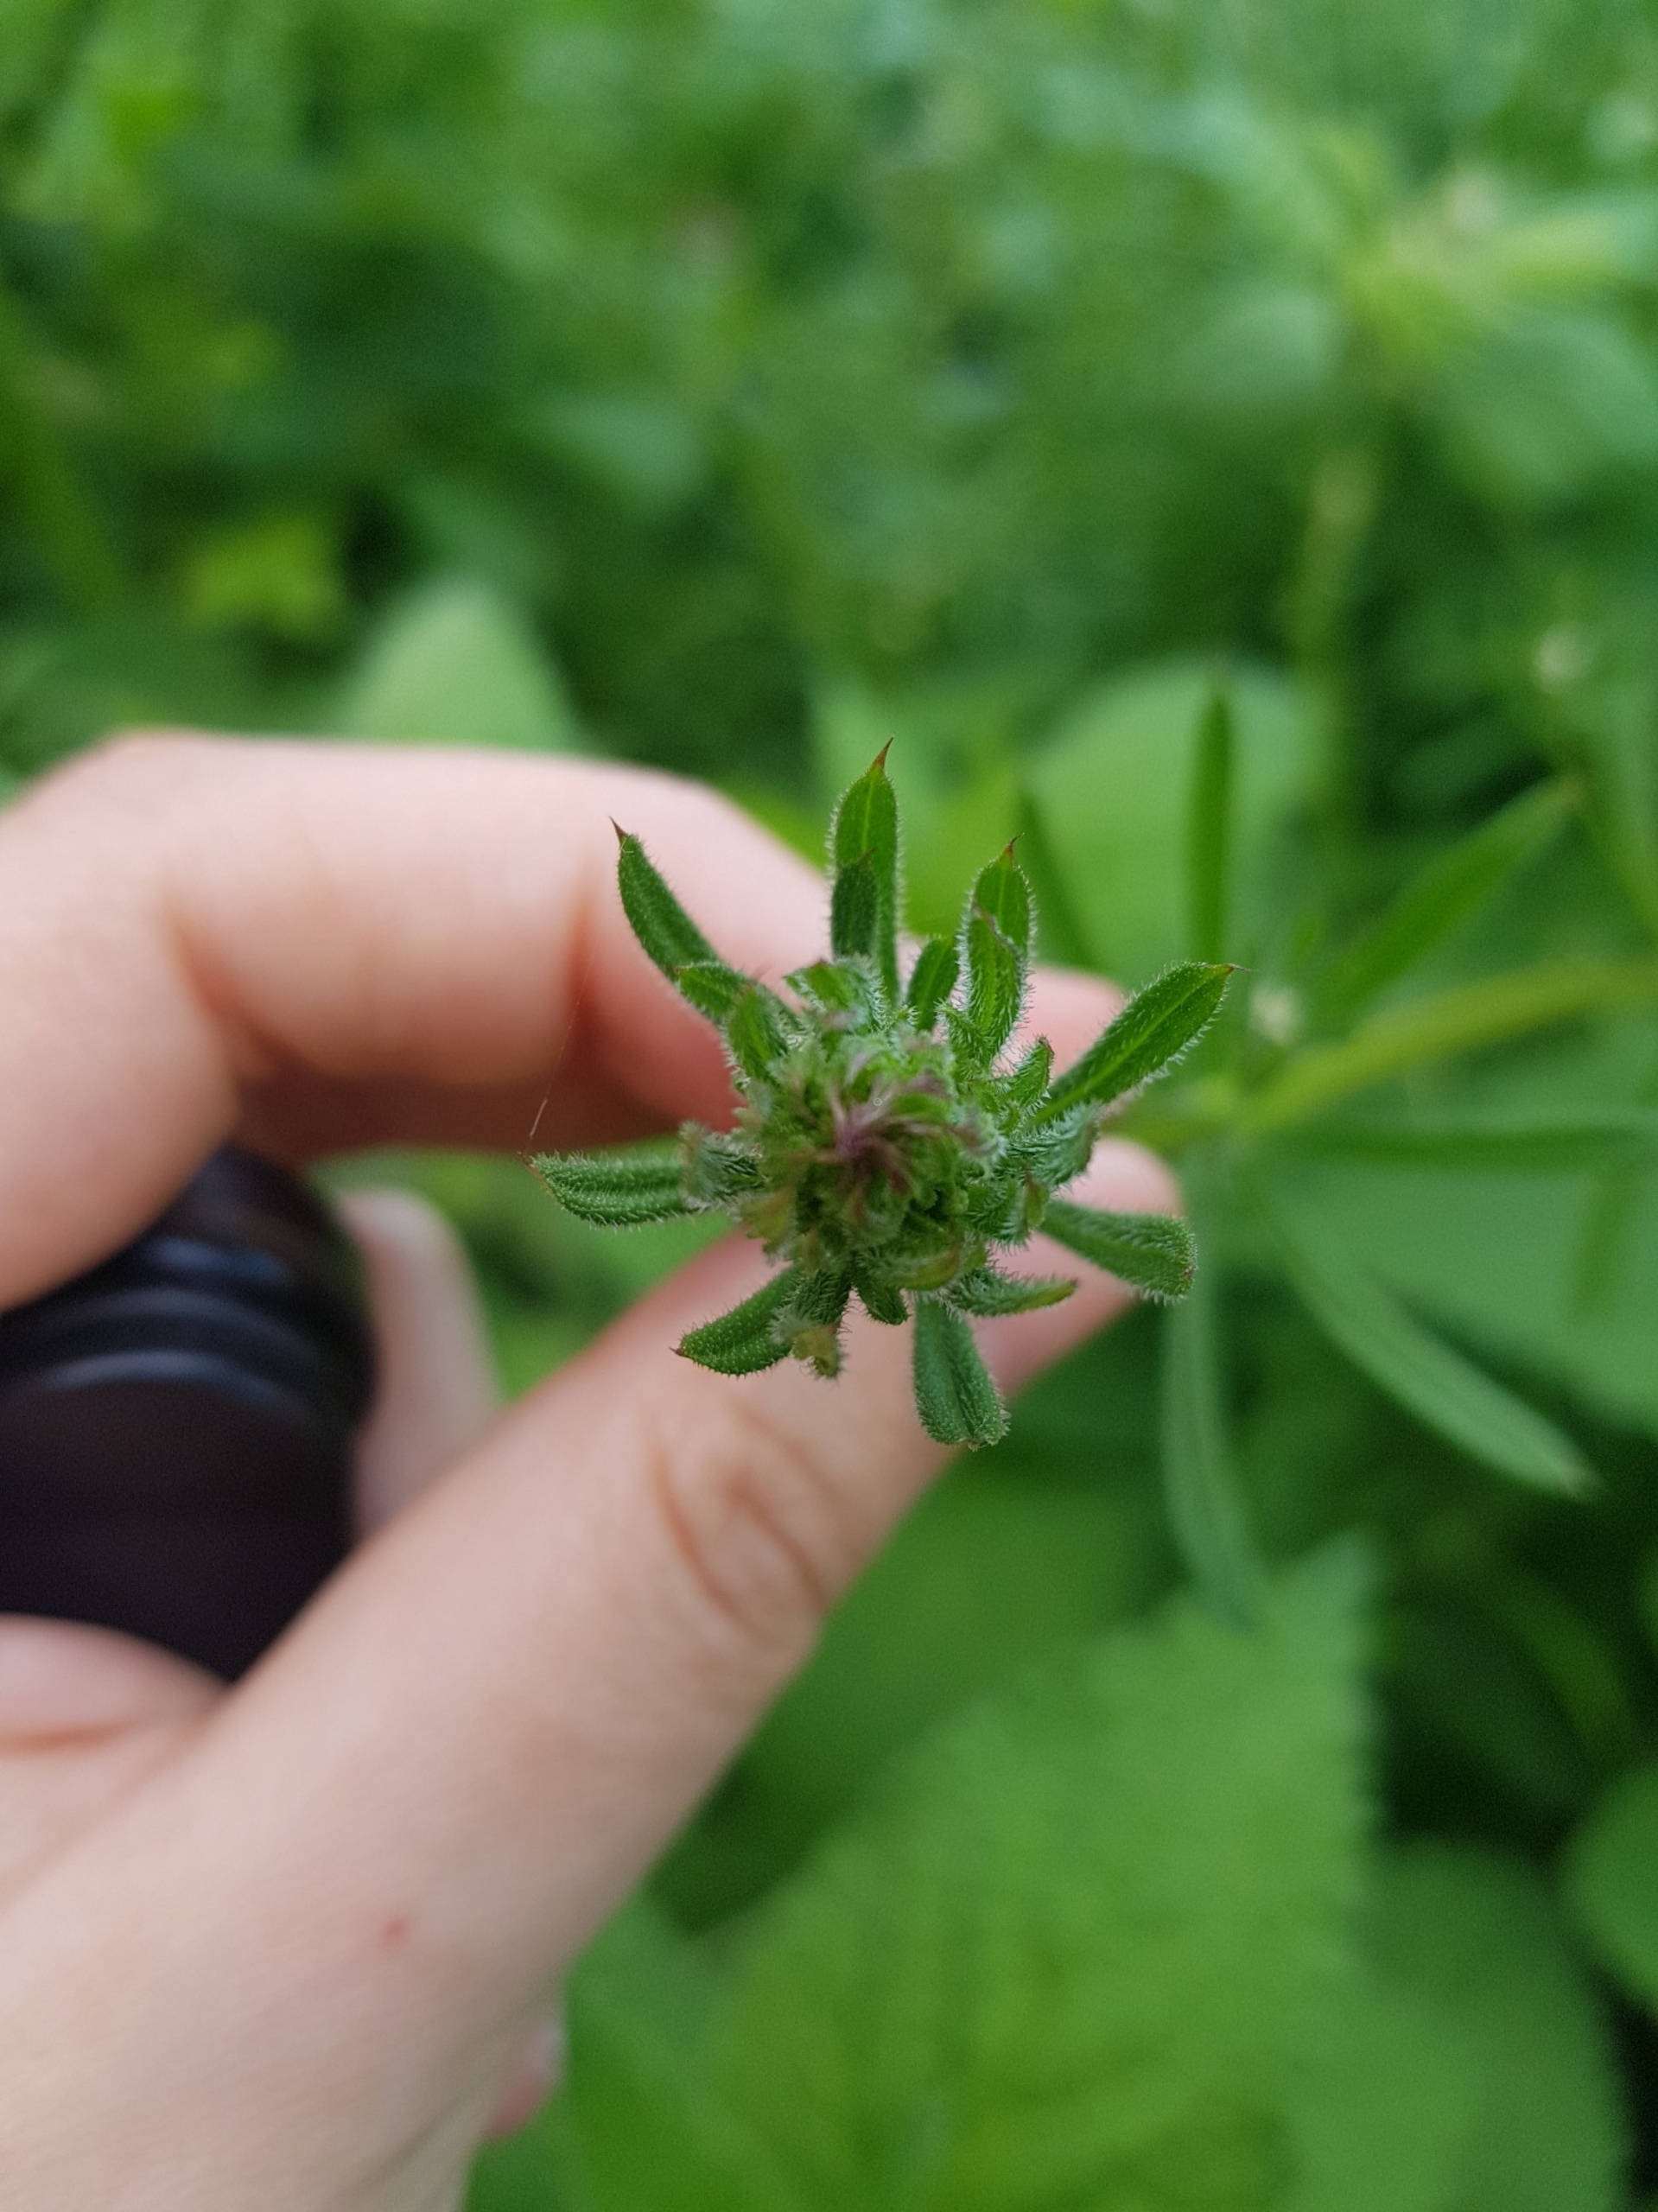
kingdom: Plantae
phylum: Tracheophyta
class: Magnoliopsida
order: Gentianales
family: Rubiaceae
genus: Galium
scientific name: Galium aparine
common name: Burre-snerre
